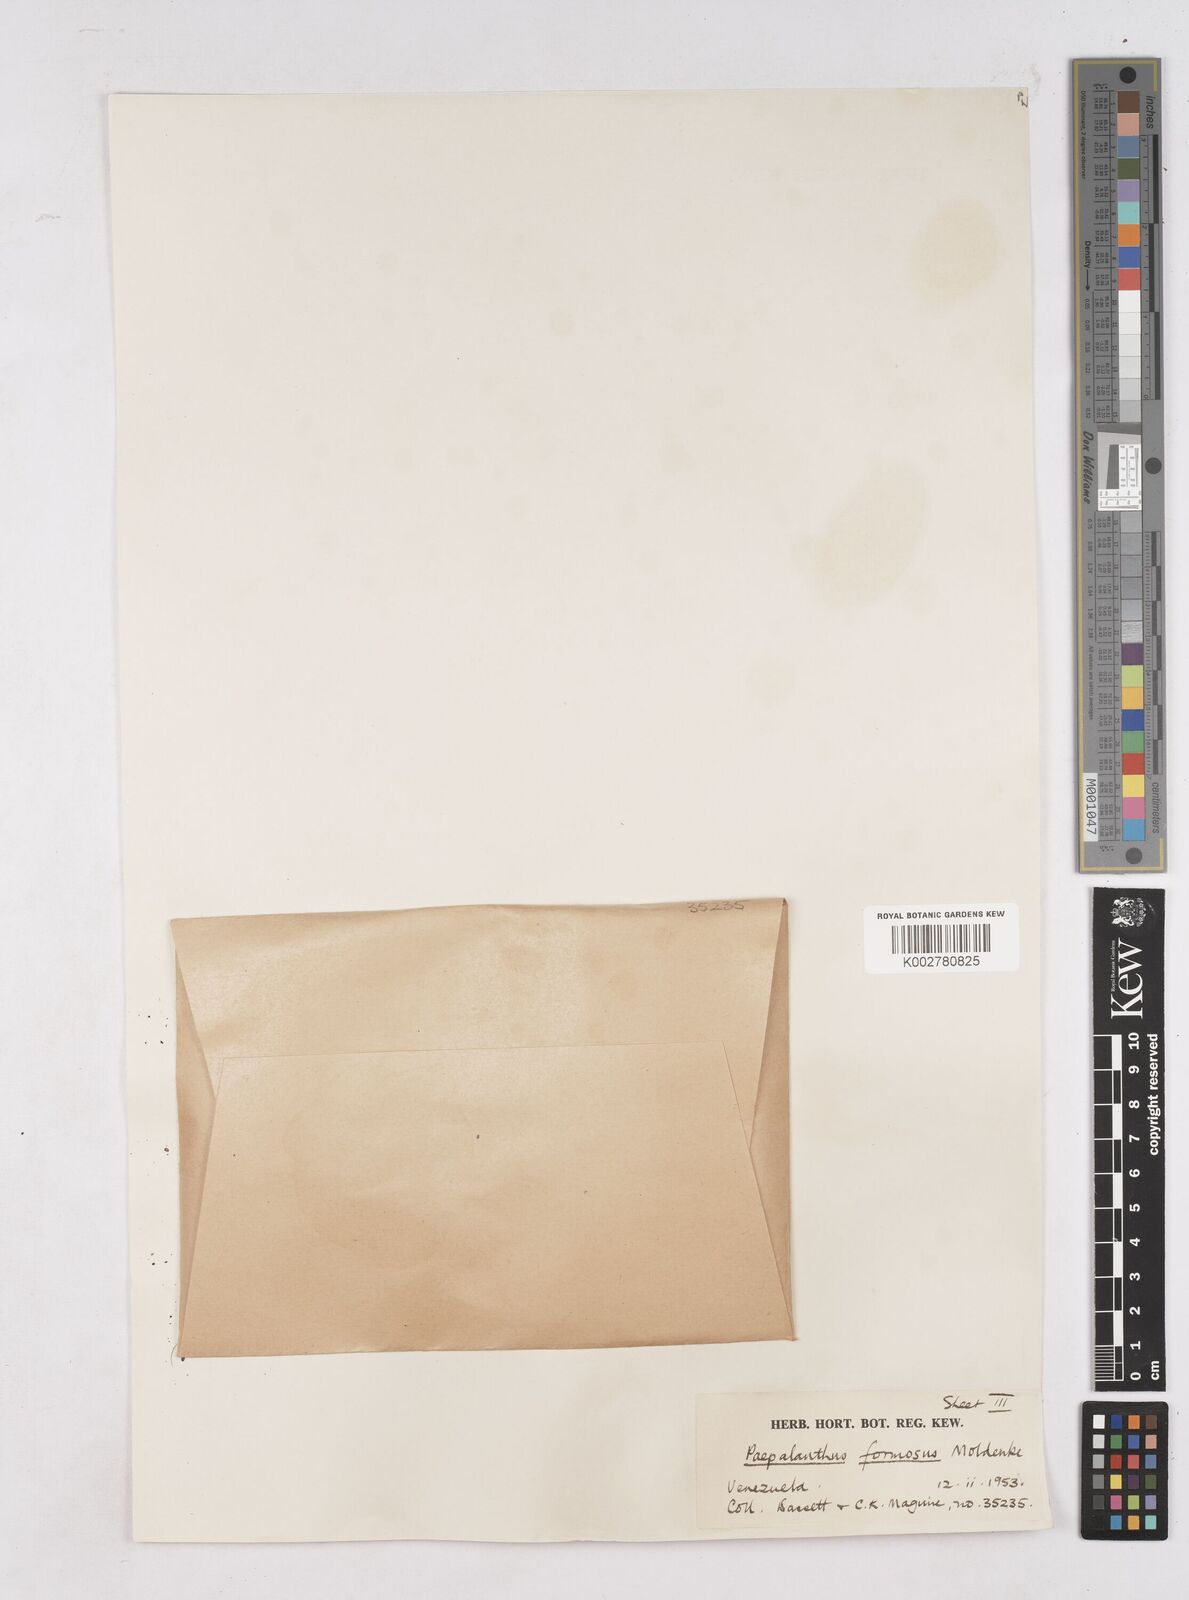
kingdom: Plantae
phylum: Tracheophyta
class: Liliopsida
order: Poales
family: Eriocaulaceae
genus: Paepalanthus
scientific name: Paepalanthus chiquitensis
